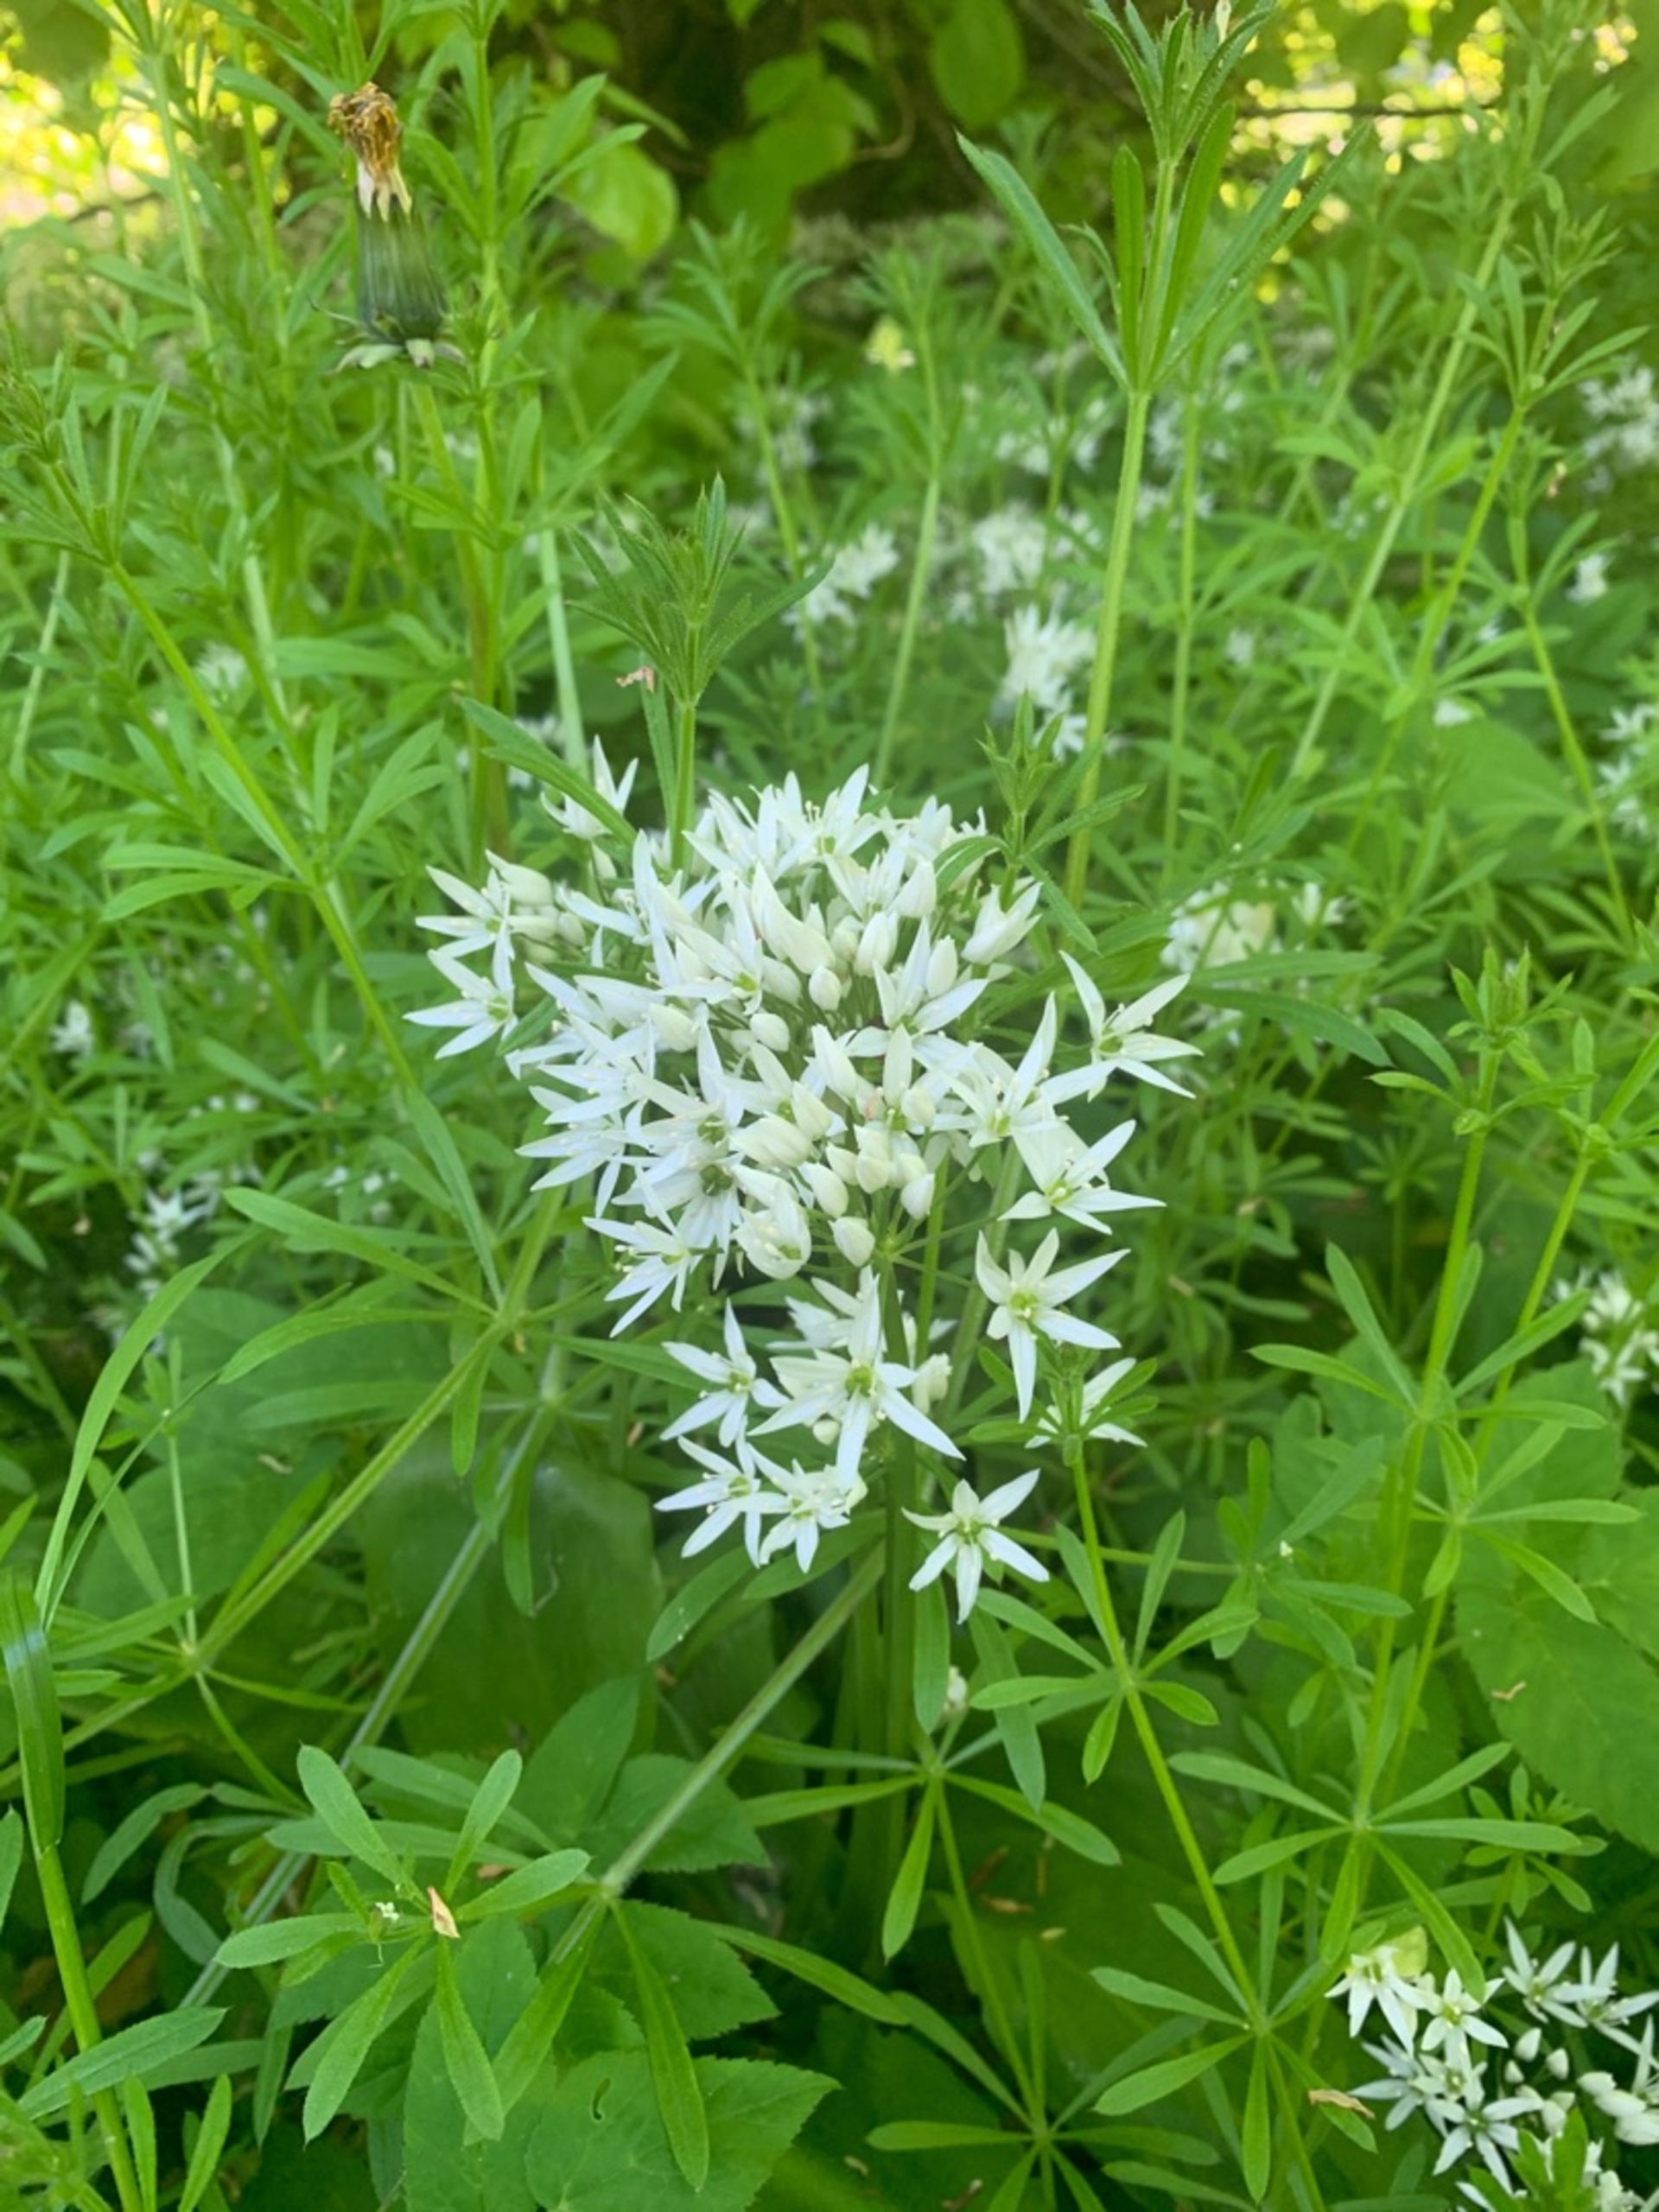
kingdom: Plantae
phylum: Tracheophyta
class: Liliopsida
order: Asparagales
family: Amaryllidaceae
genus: Allium
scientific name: Allium ursinum
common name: Rams-løg
